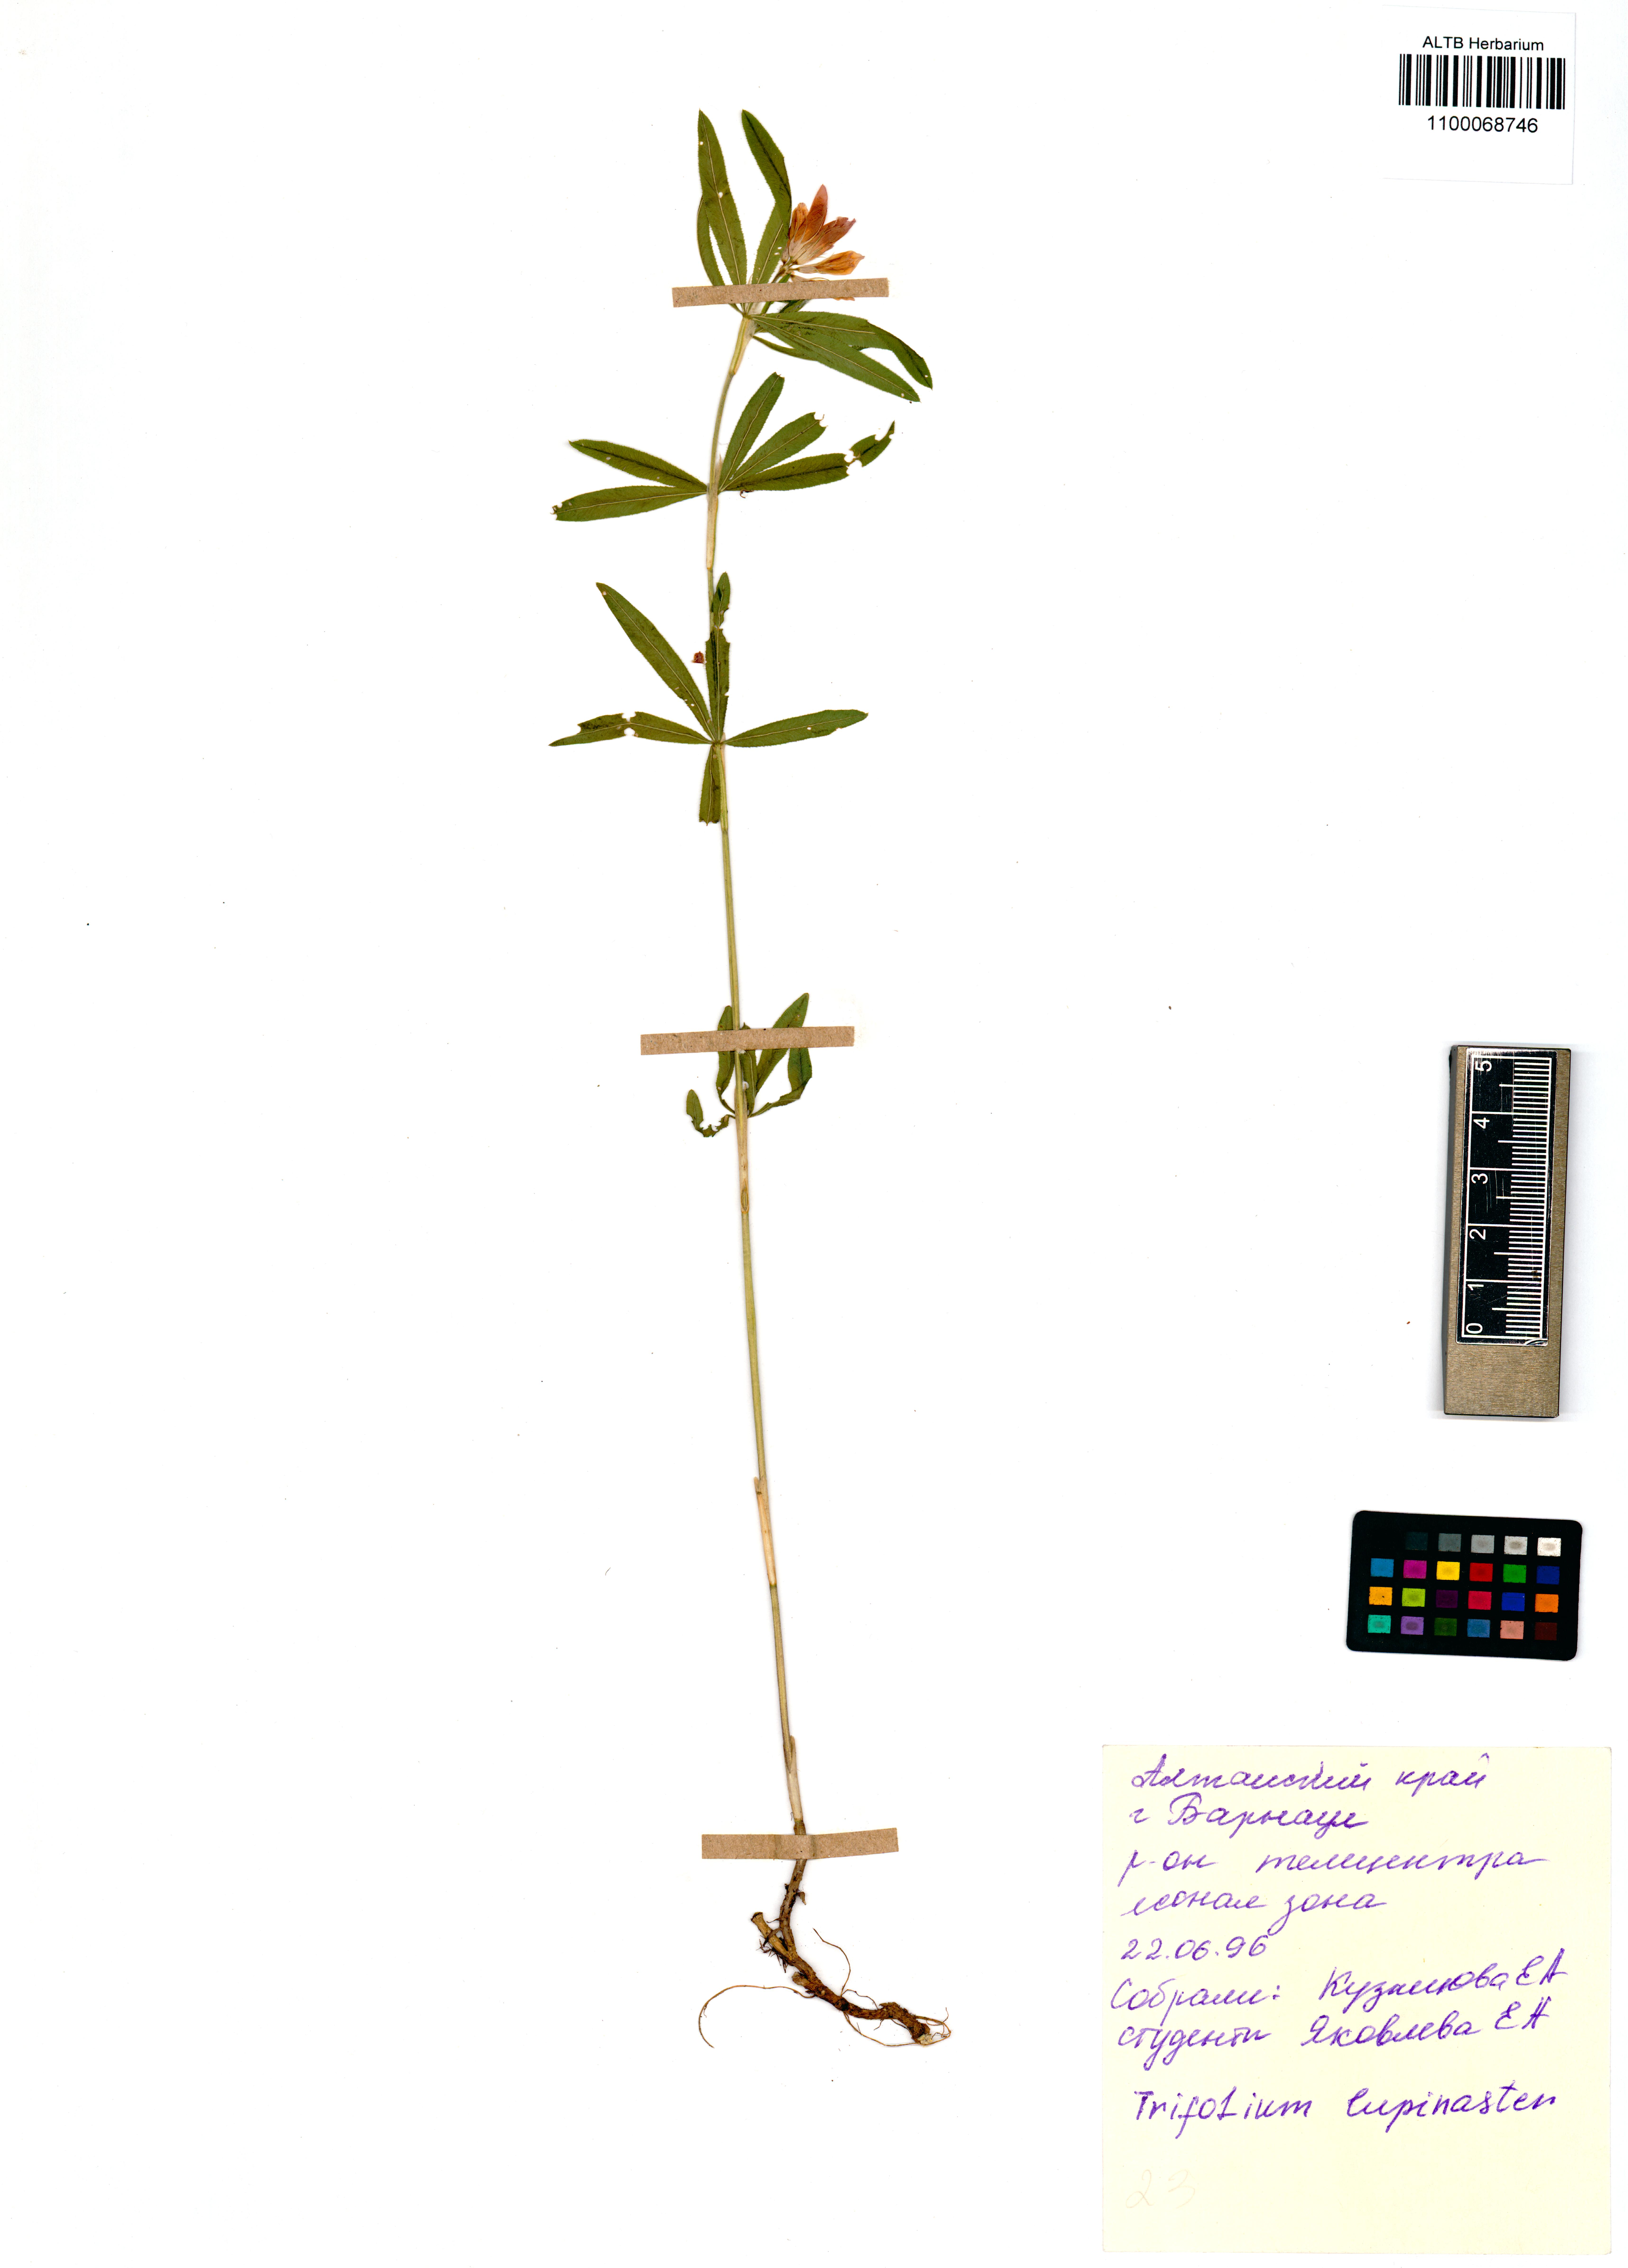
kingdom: Plantae
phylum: Tracheophyta
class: Magnoliopsida
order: Fabales
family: Fabaceae
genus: Trifolium
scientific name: Trifolium lupinaster
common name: Lupine clover
